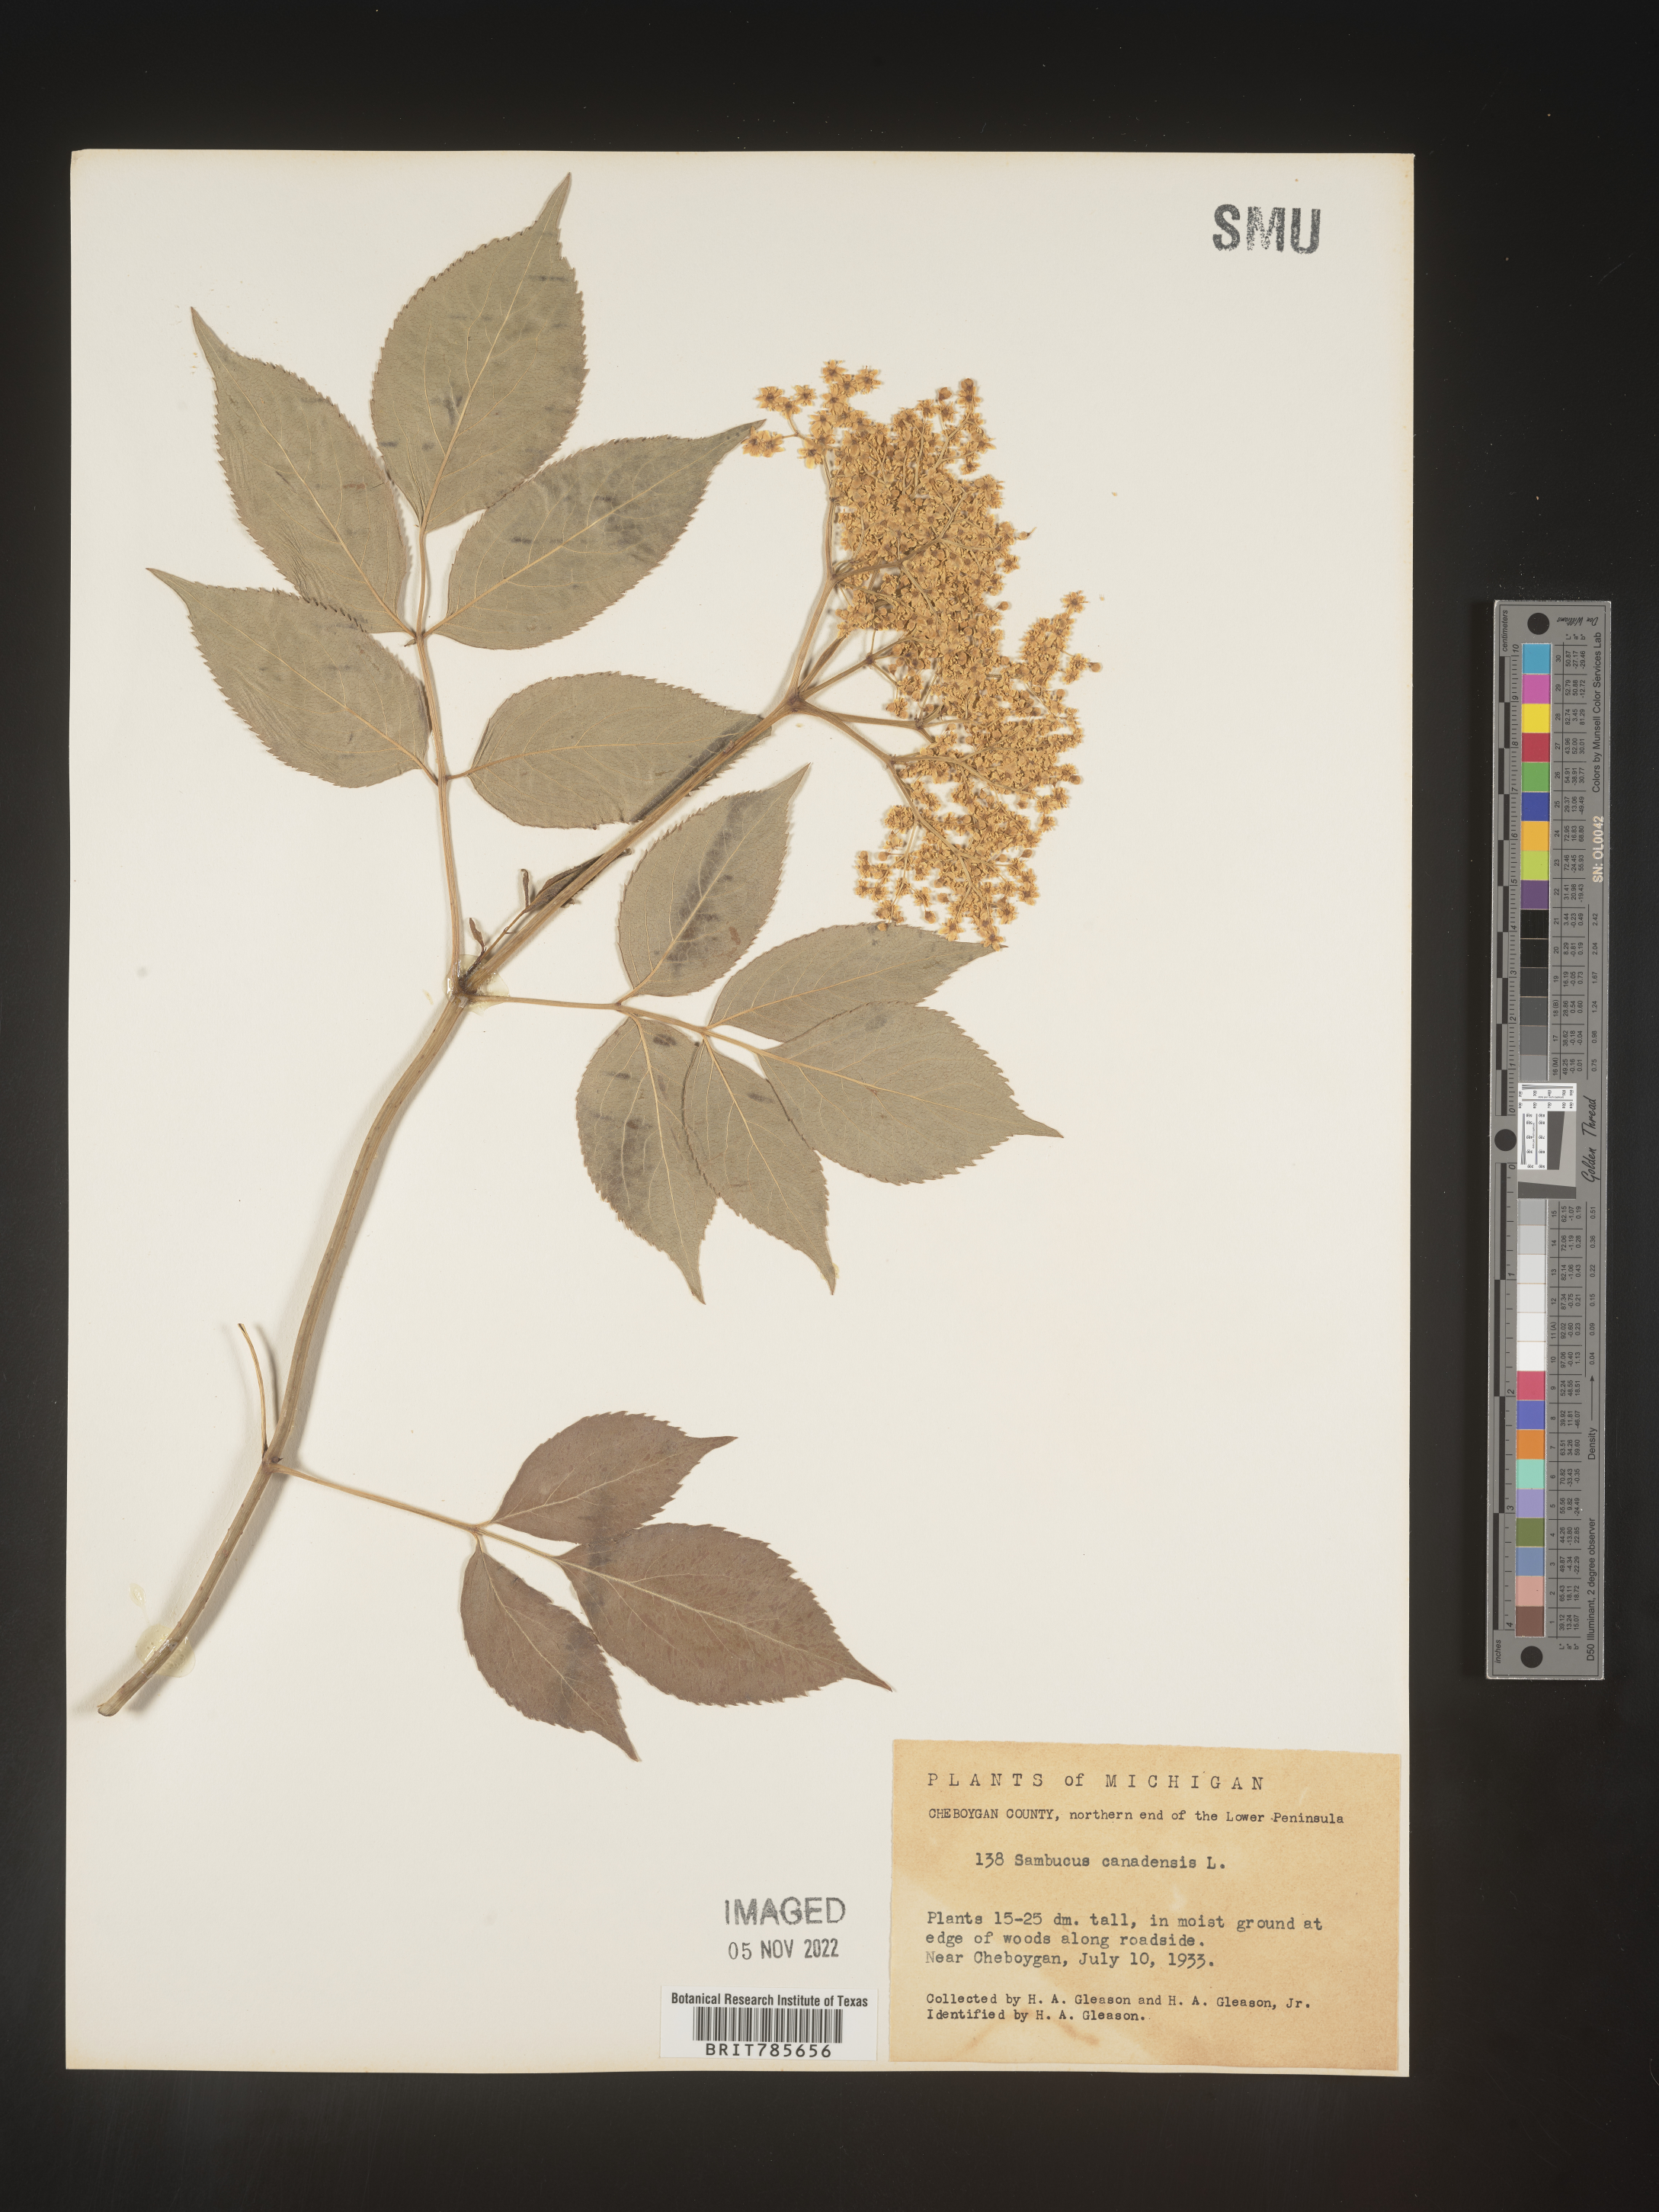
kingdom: Plantae
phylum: Tracheophyta
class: Magnoliopsida
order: Dipsacales
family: Viburnaceae
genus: Sambucus
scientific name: Sambucus canadensis
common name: American elder
